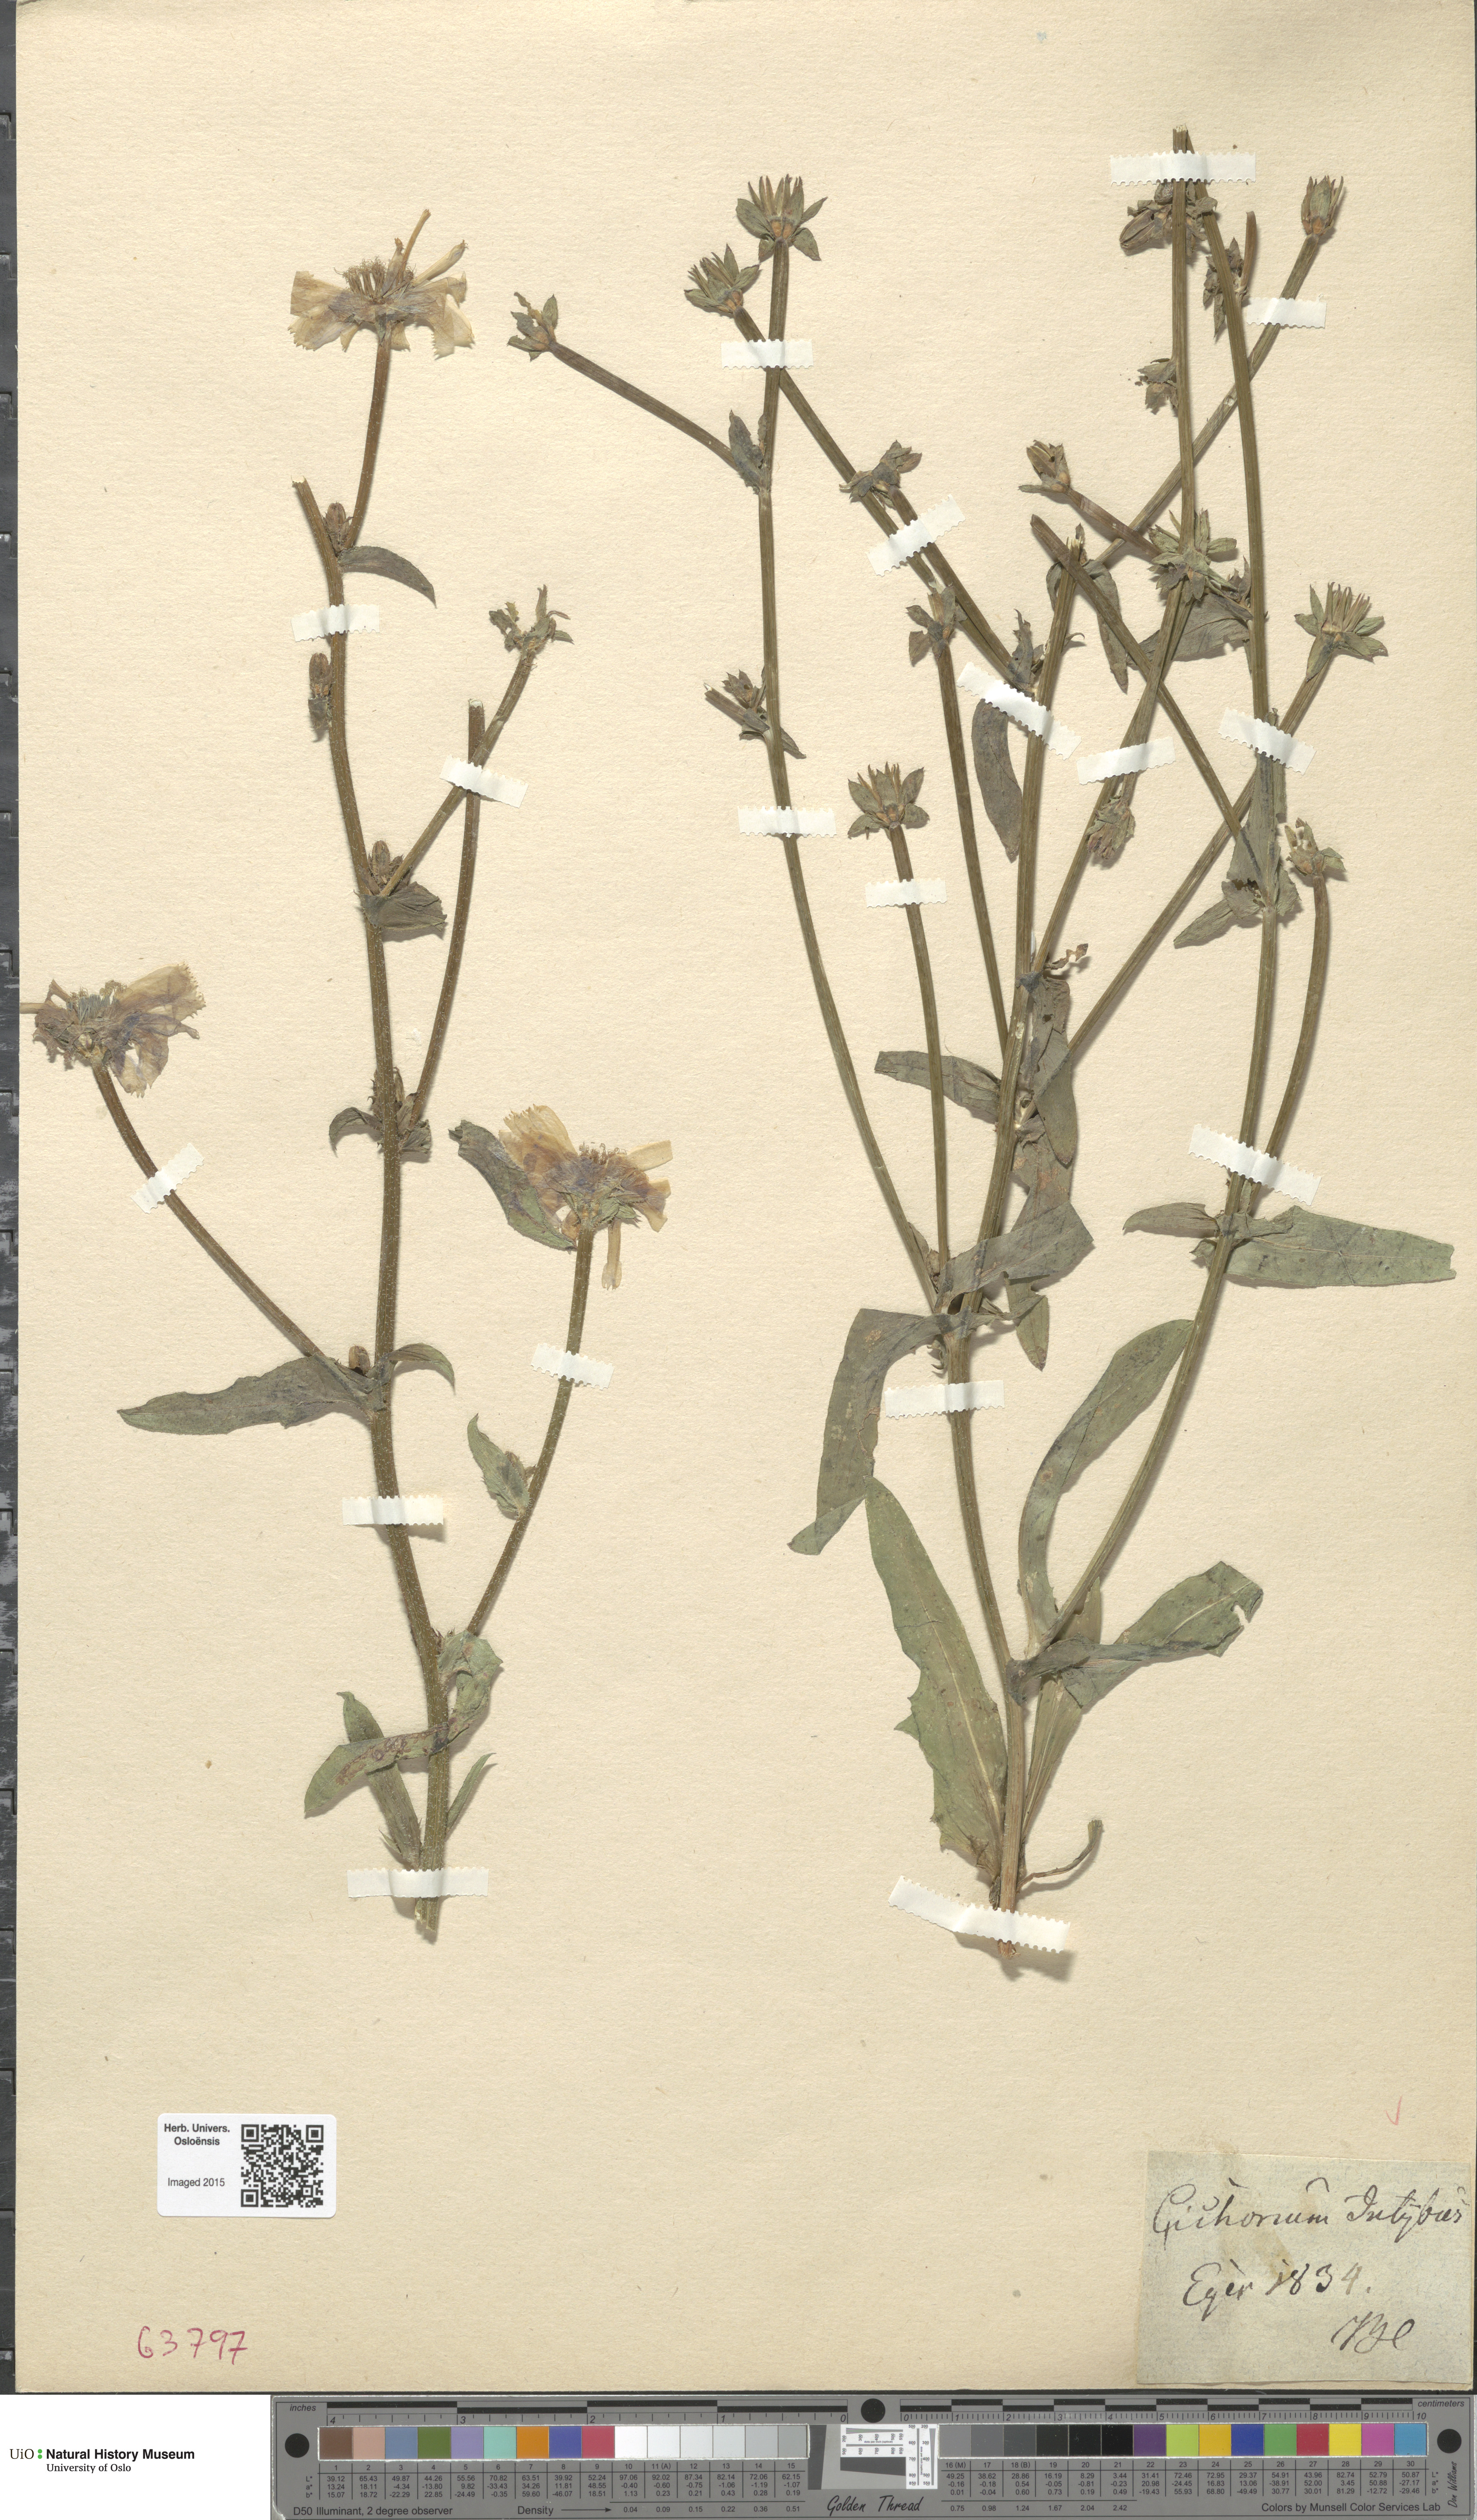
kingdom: Plantae
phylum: Tracheophyta
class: Magnoliopsida
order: Asterales
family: Asteraceae
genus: Cichorium
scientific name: Cichorium intybus
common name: Chicory
